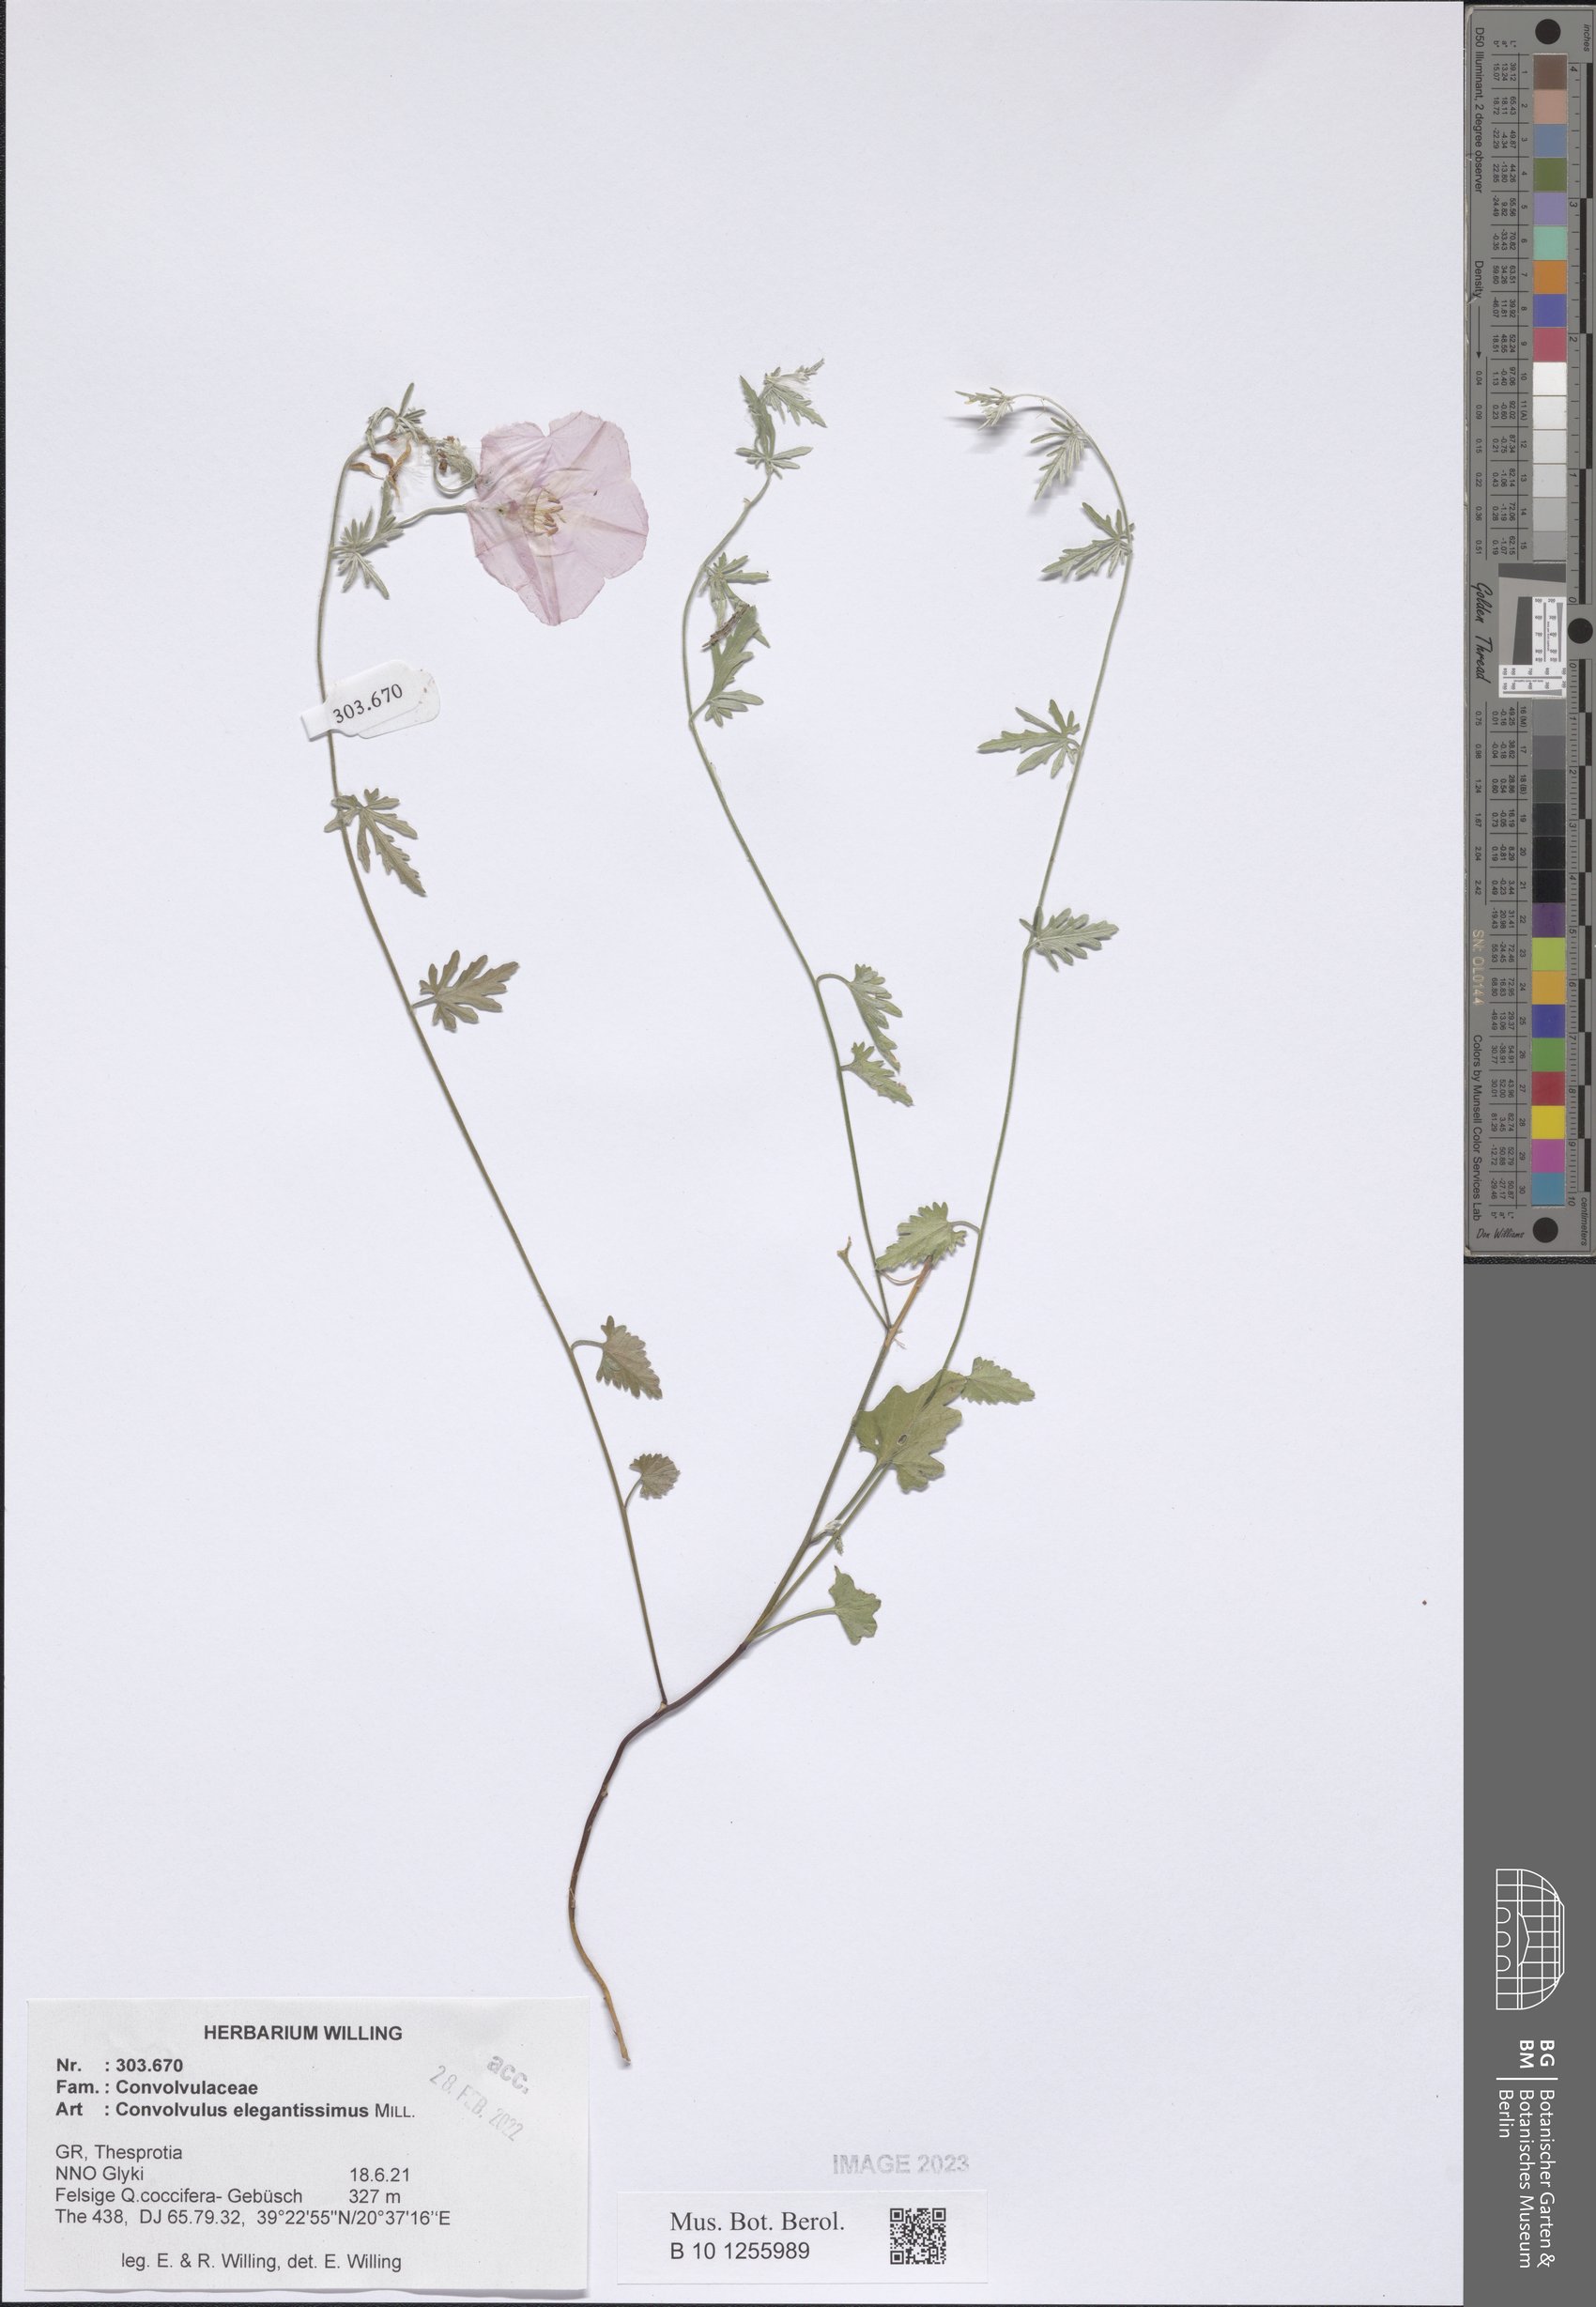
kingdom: Plantae
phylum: Tracheophyta
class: Magnoliopsida
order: Solanales
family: Convolvulaceae
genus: Convolvulus
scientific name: Convolvulus elegantissimus
